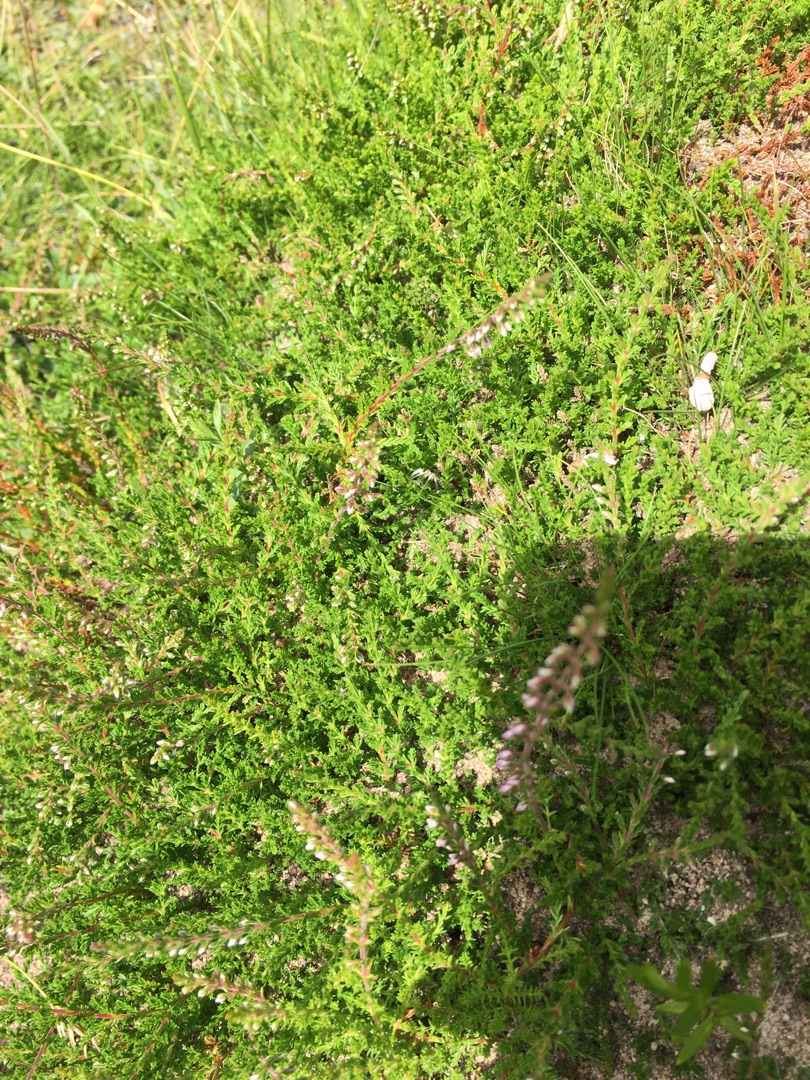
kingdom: Plantae
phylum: Tracheophyta
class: Magnoliopsida
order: Ericales
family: Ericaceae
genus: Calluna
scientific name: Calluna vulgaris
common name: Hedelyng
